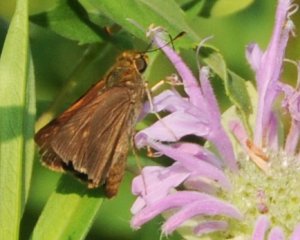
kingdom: Animalia
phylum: Arthropoda
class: Insecta
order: Lepidoptera
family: Hesperiidae
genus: Euphyes
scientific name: Euphyes vestris
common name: Dun Skipper
